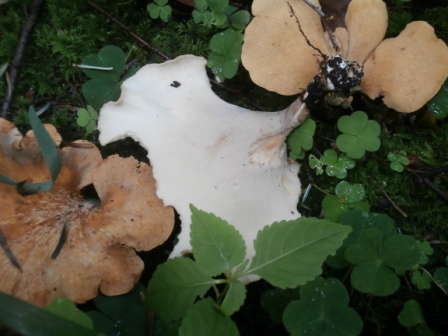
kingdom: Fungi
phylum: Basidiomycota
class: Agaricomycetes
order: Polyporales
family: Polyporaceae
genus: Cerioporus
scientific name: Cerioporus varius
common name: foranderlig stilkporesvamp
